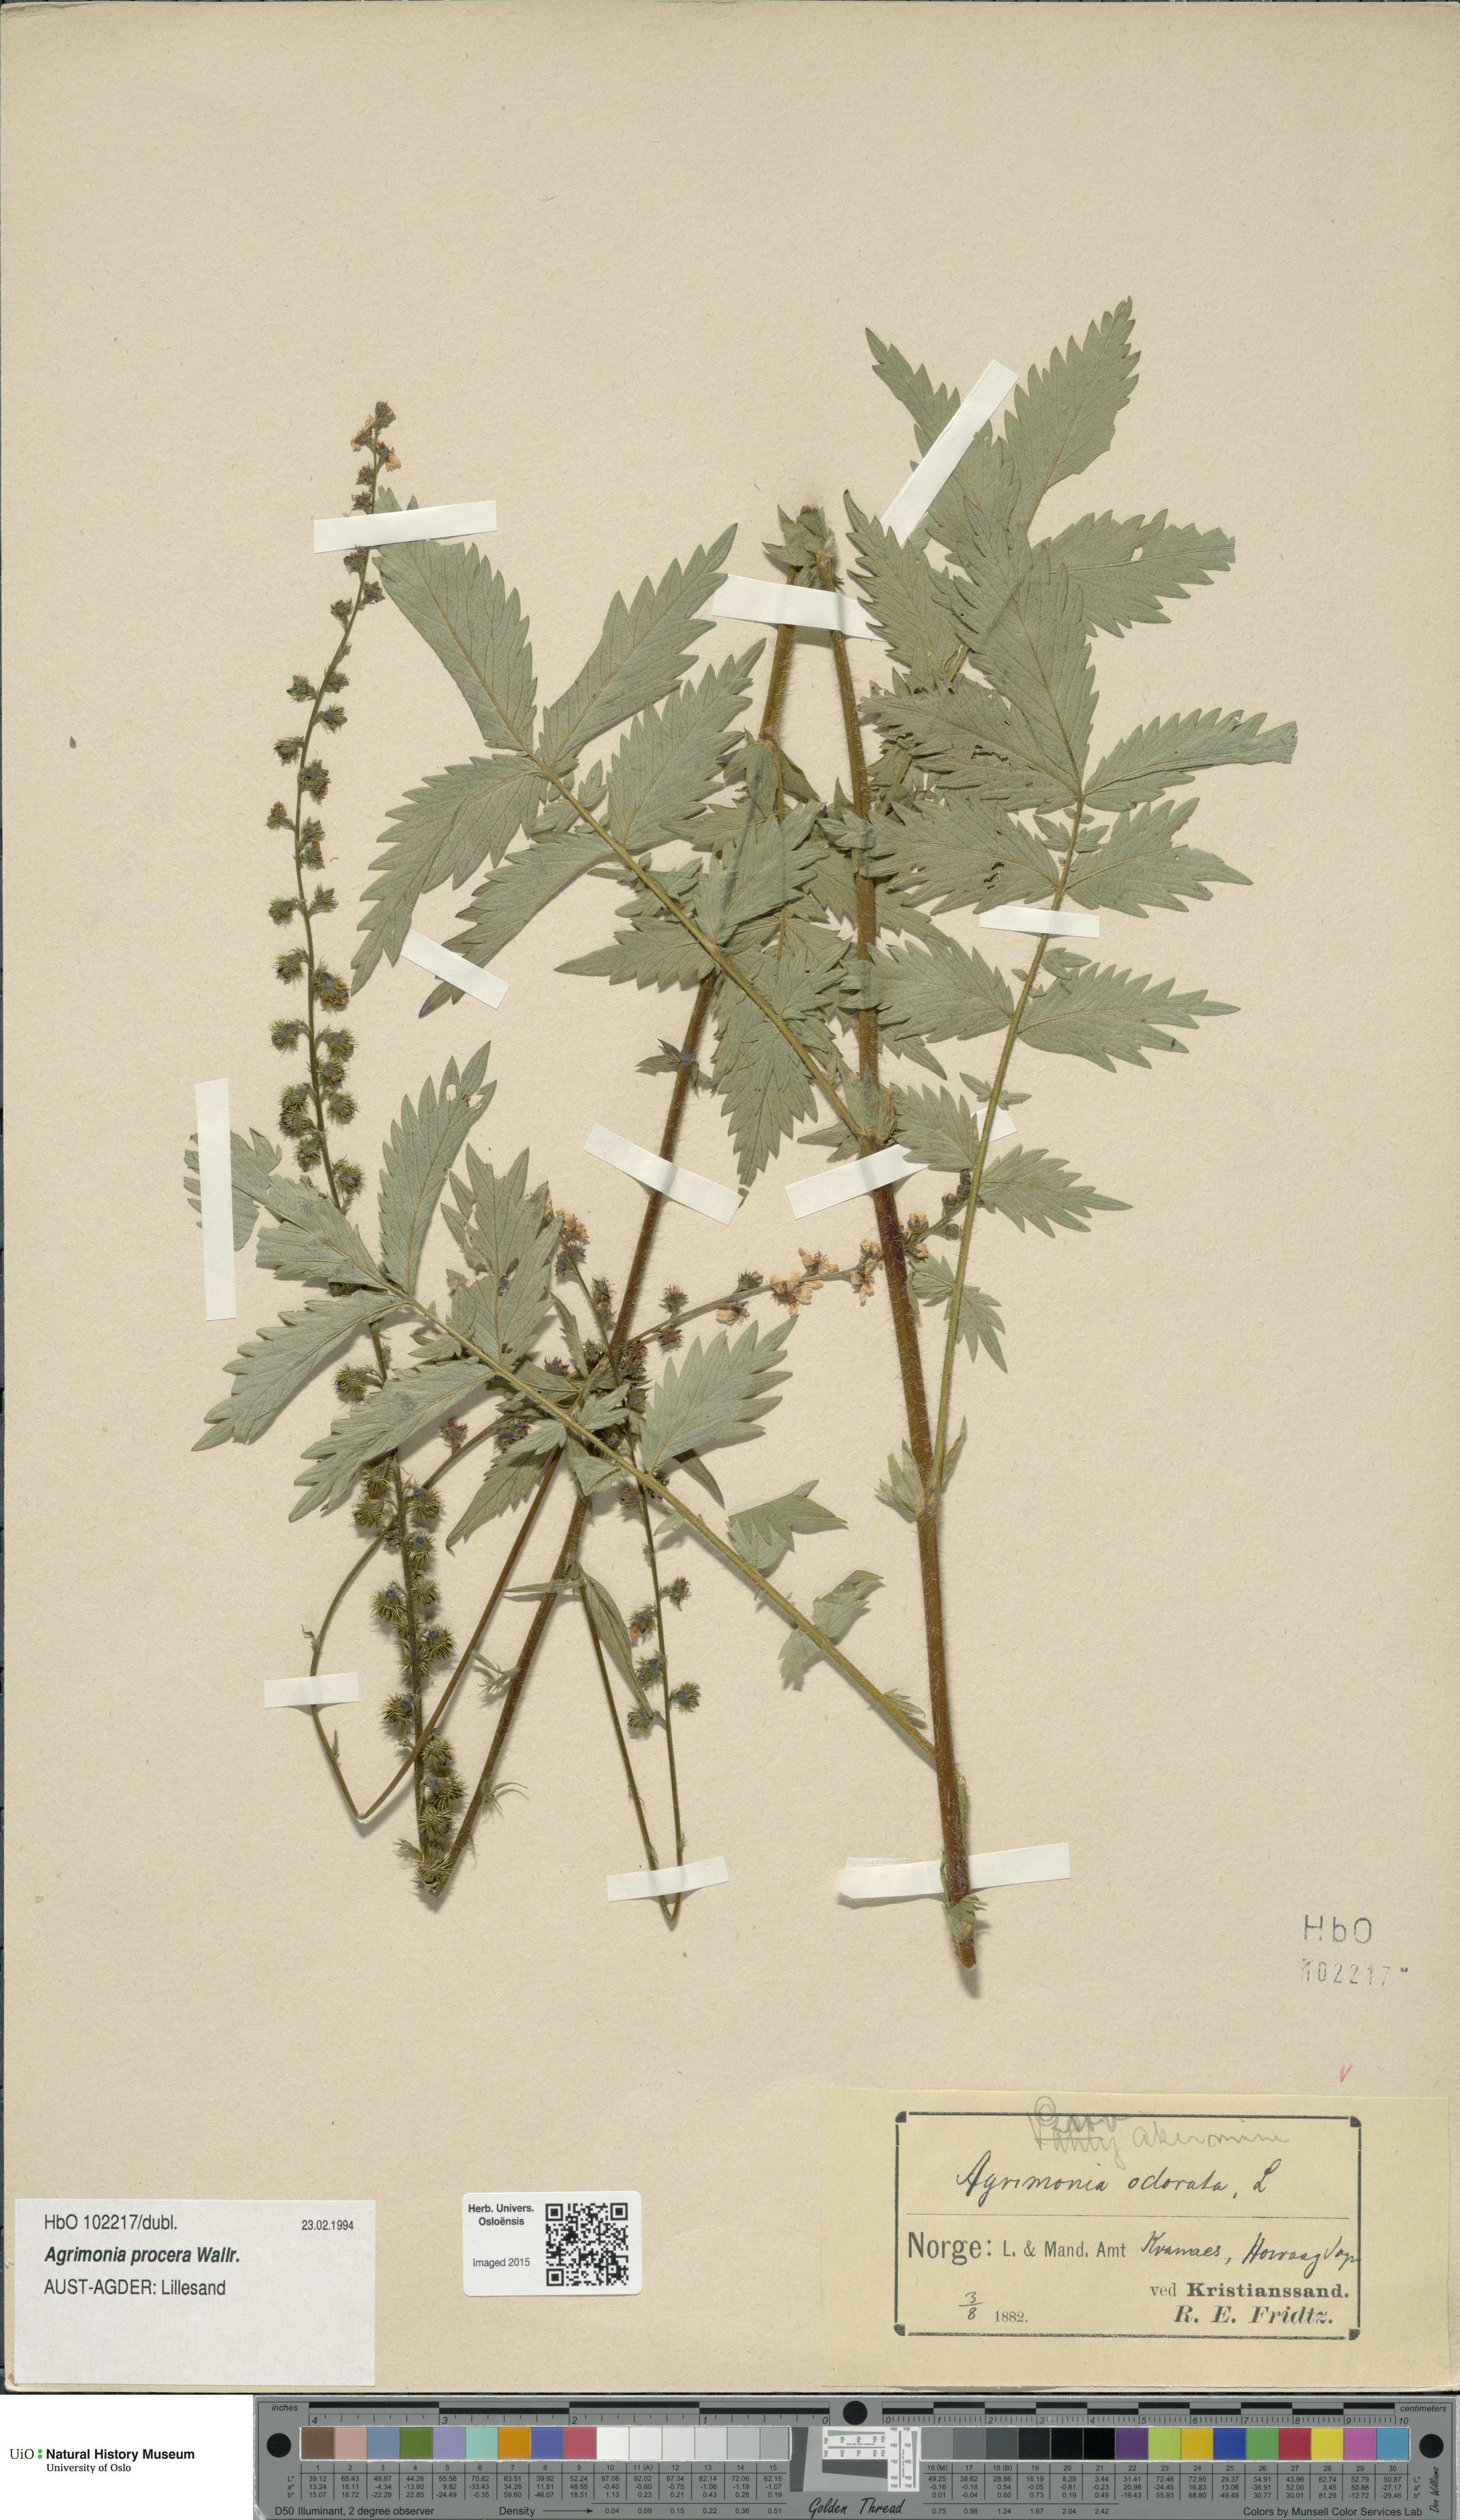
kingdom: Plantae
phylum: Tracheophyta
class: Magnoliopsida
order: Rosales
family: Rosaceae
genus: Agrimonia
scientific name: Agrimonia procera
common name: Fragrant agrimony
